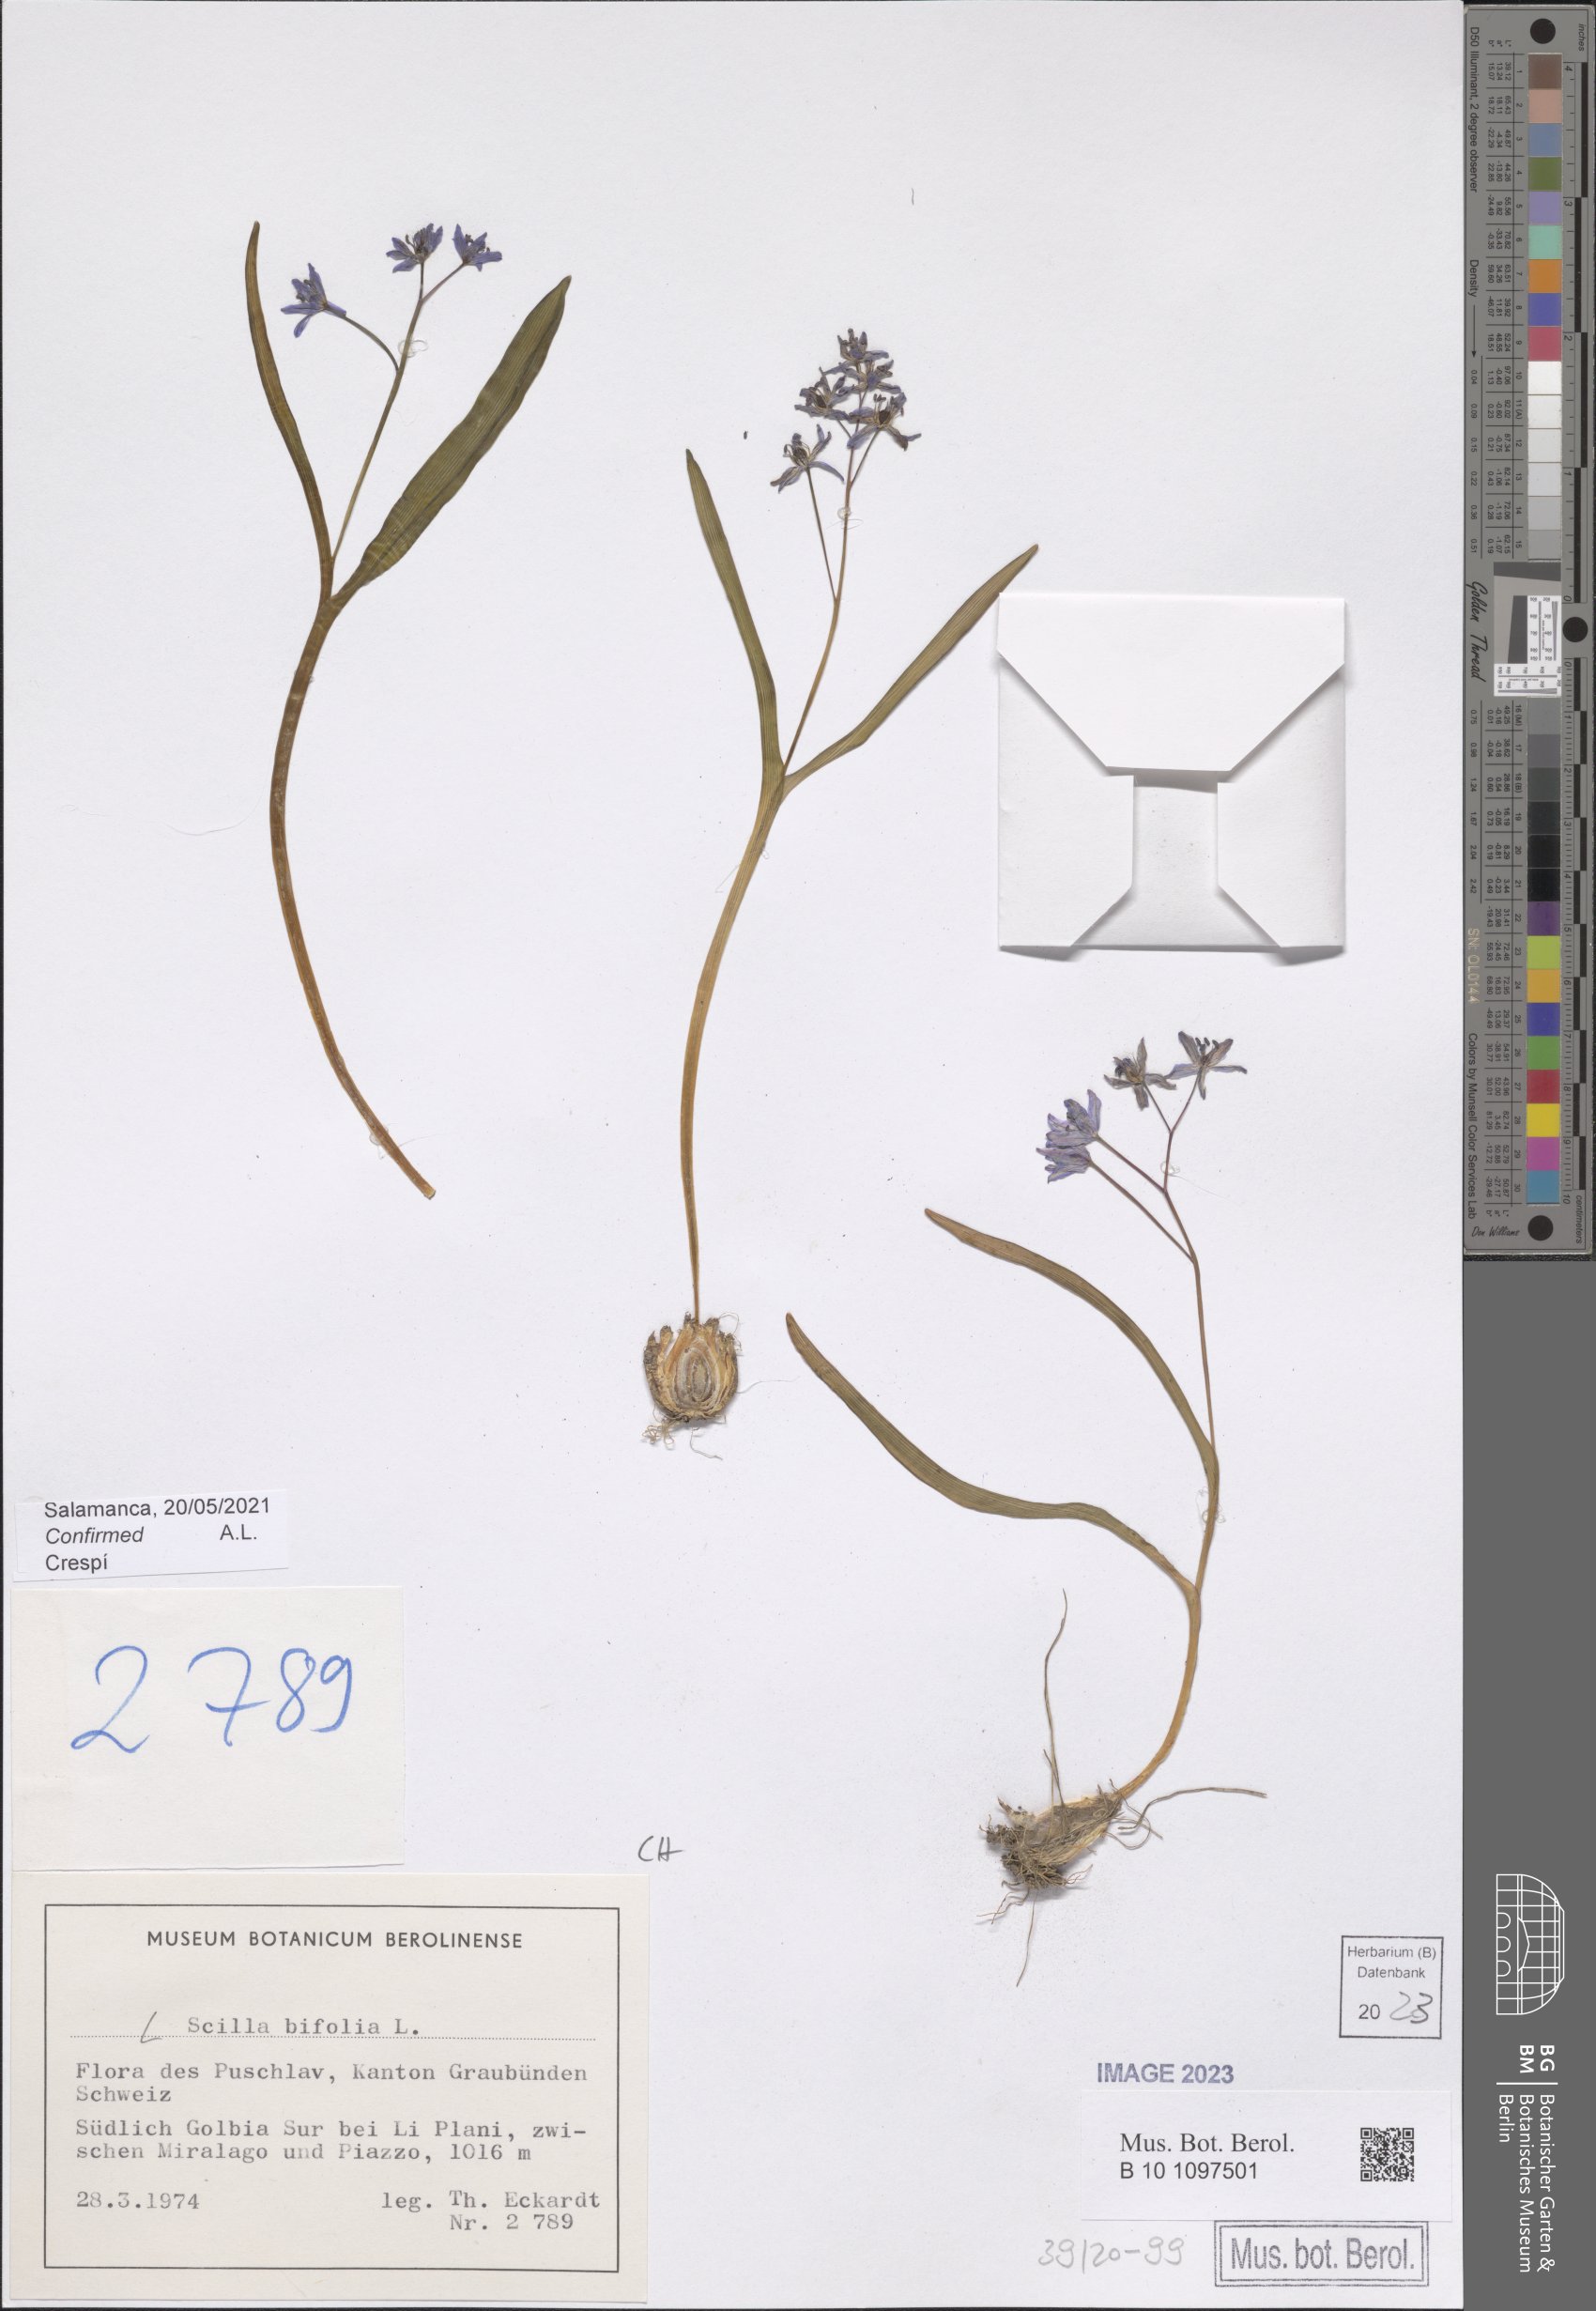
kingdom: Plantae
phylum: Tracheophyta
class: Liliopsida
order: Asparagales
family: Asparagaceae
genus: Scilla
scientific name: Scilla bifolia
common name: Alpine squill
